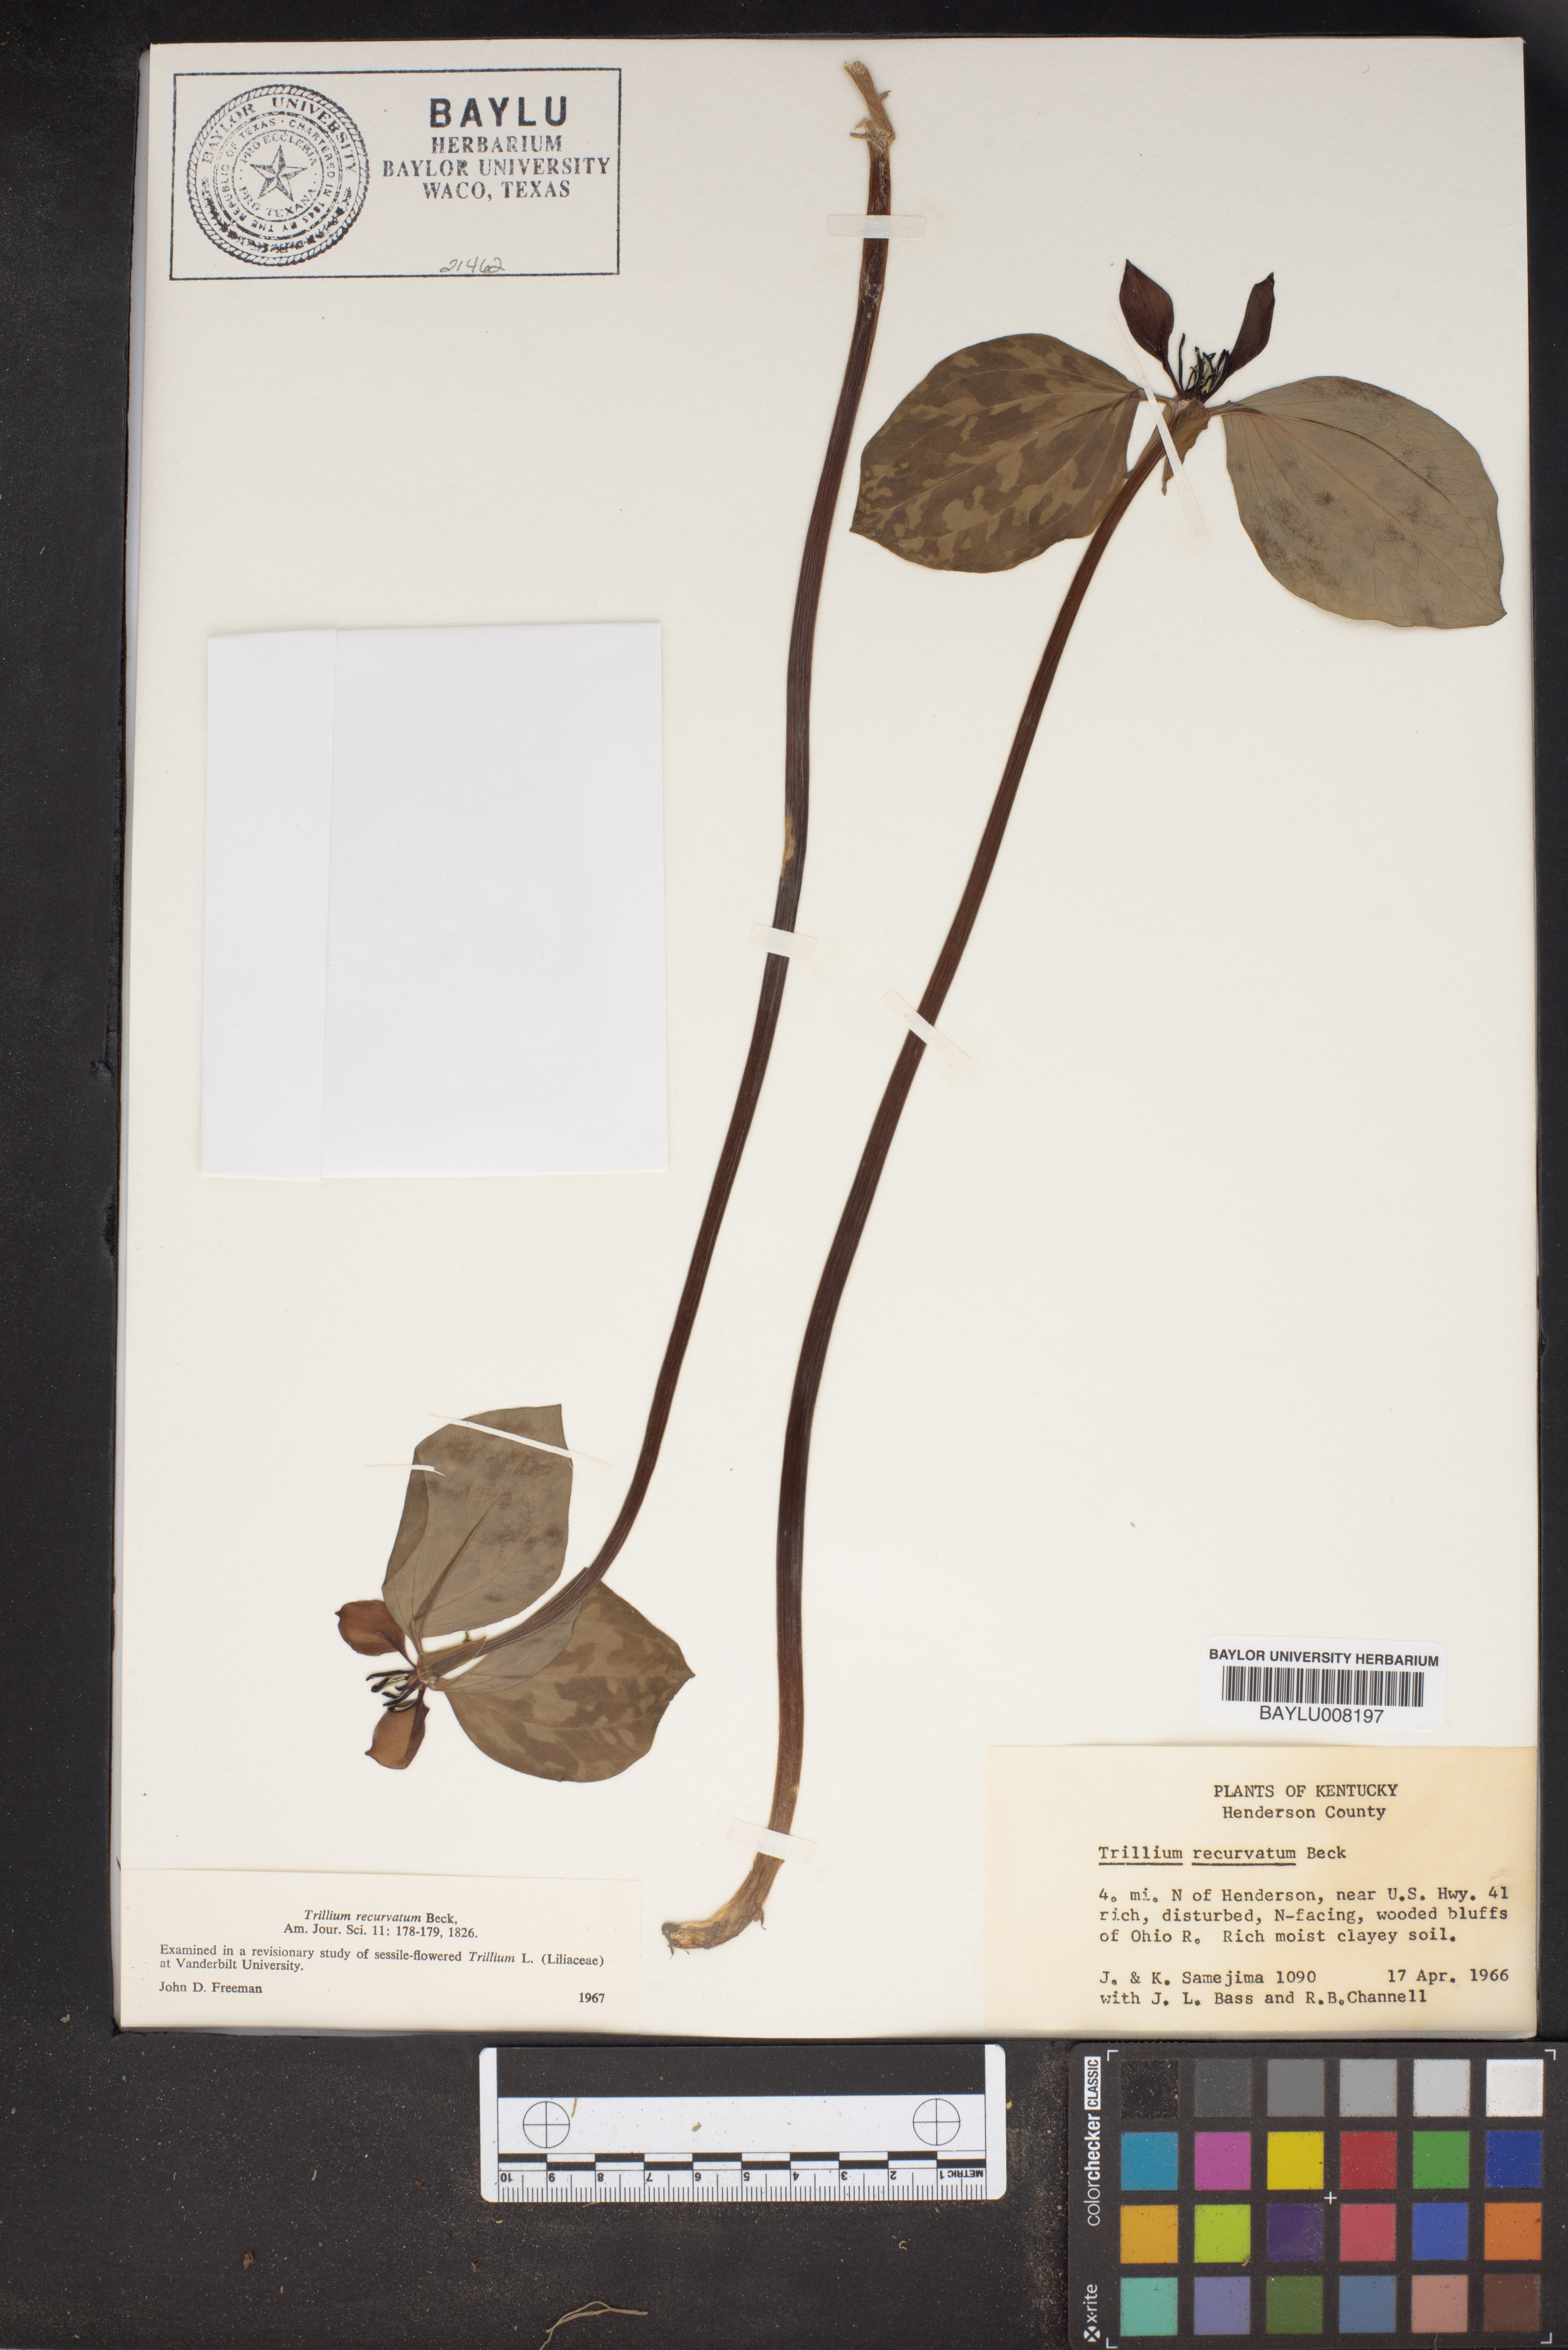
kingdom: Plantae
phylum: Tracheophyta
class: Liliopsida
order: Liliales
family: Melanthiaceae
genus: Trillium
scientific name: Trillium recurvatum
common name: Bloody butcher
